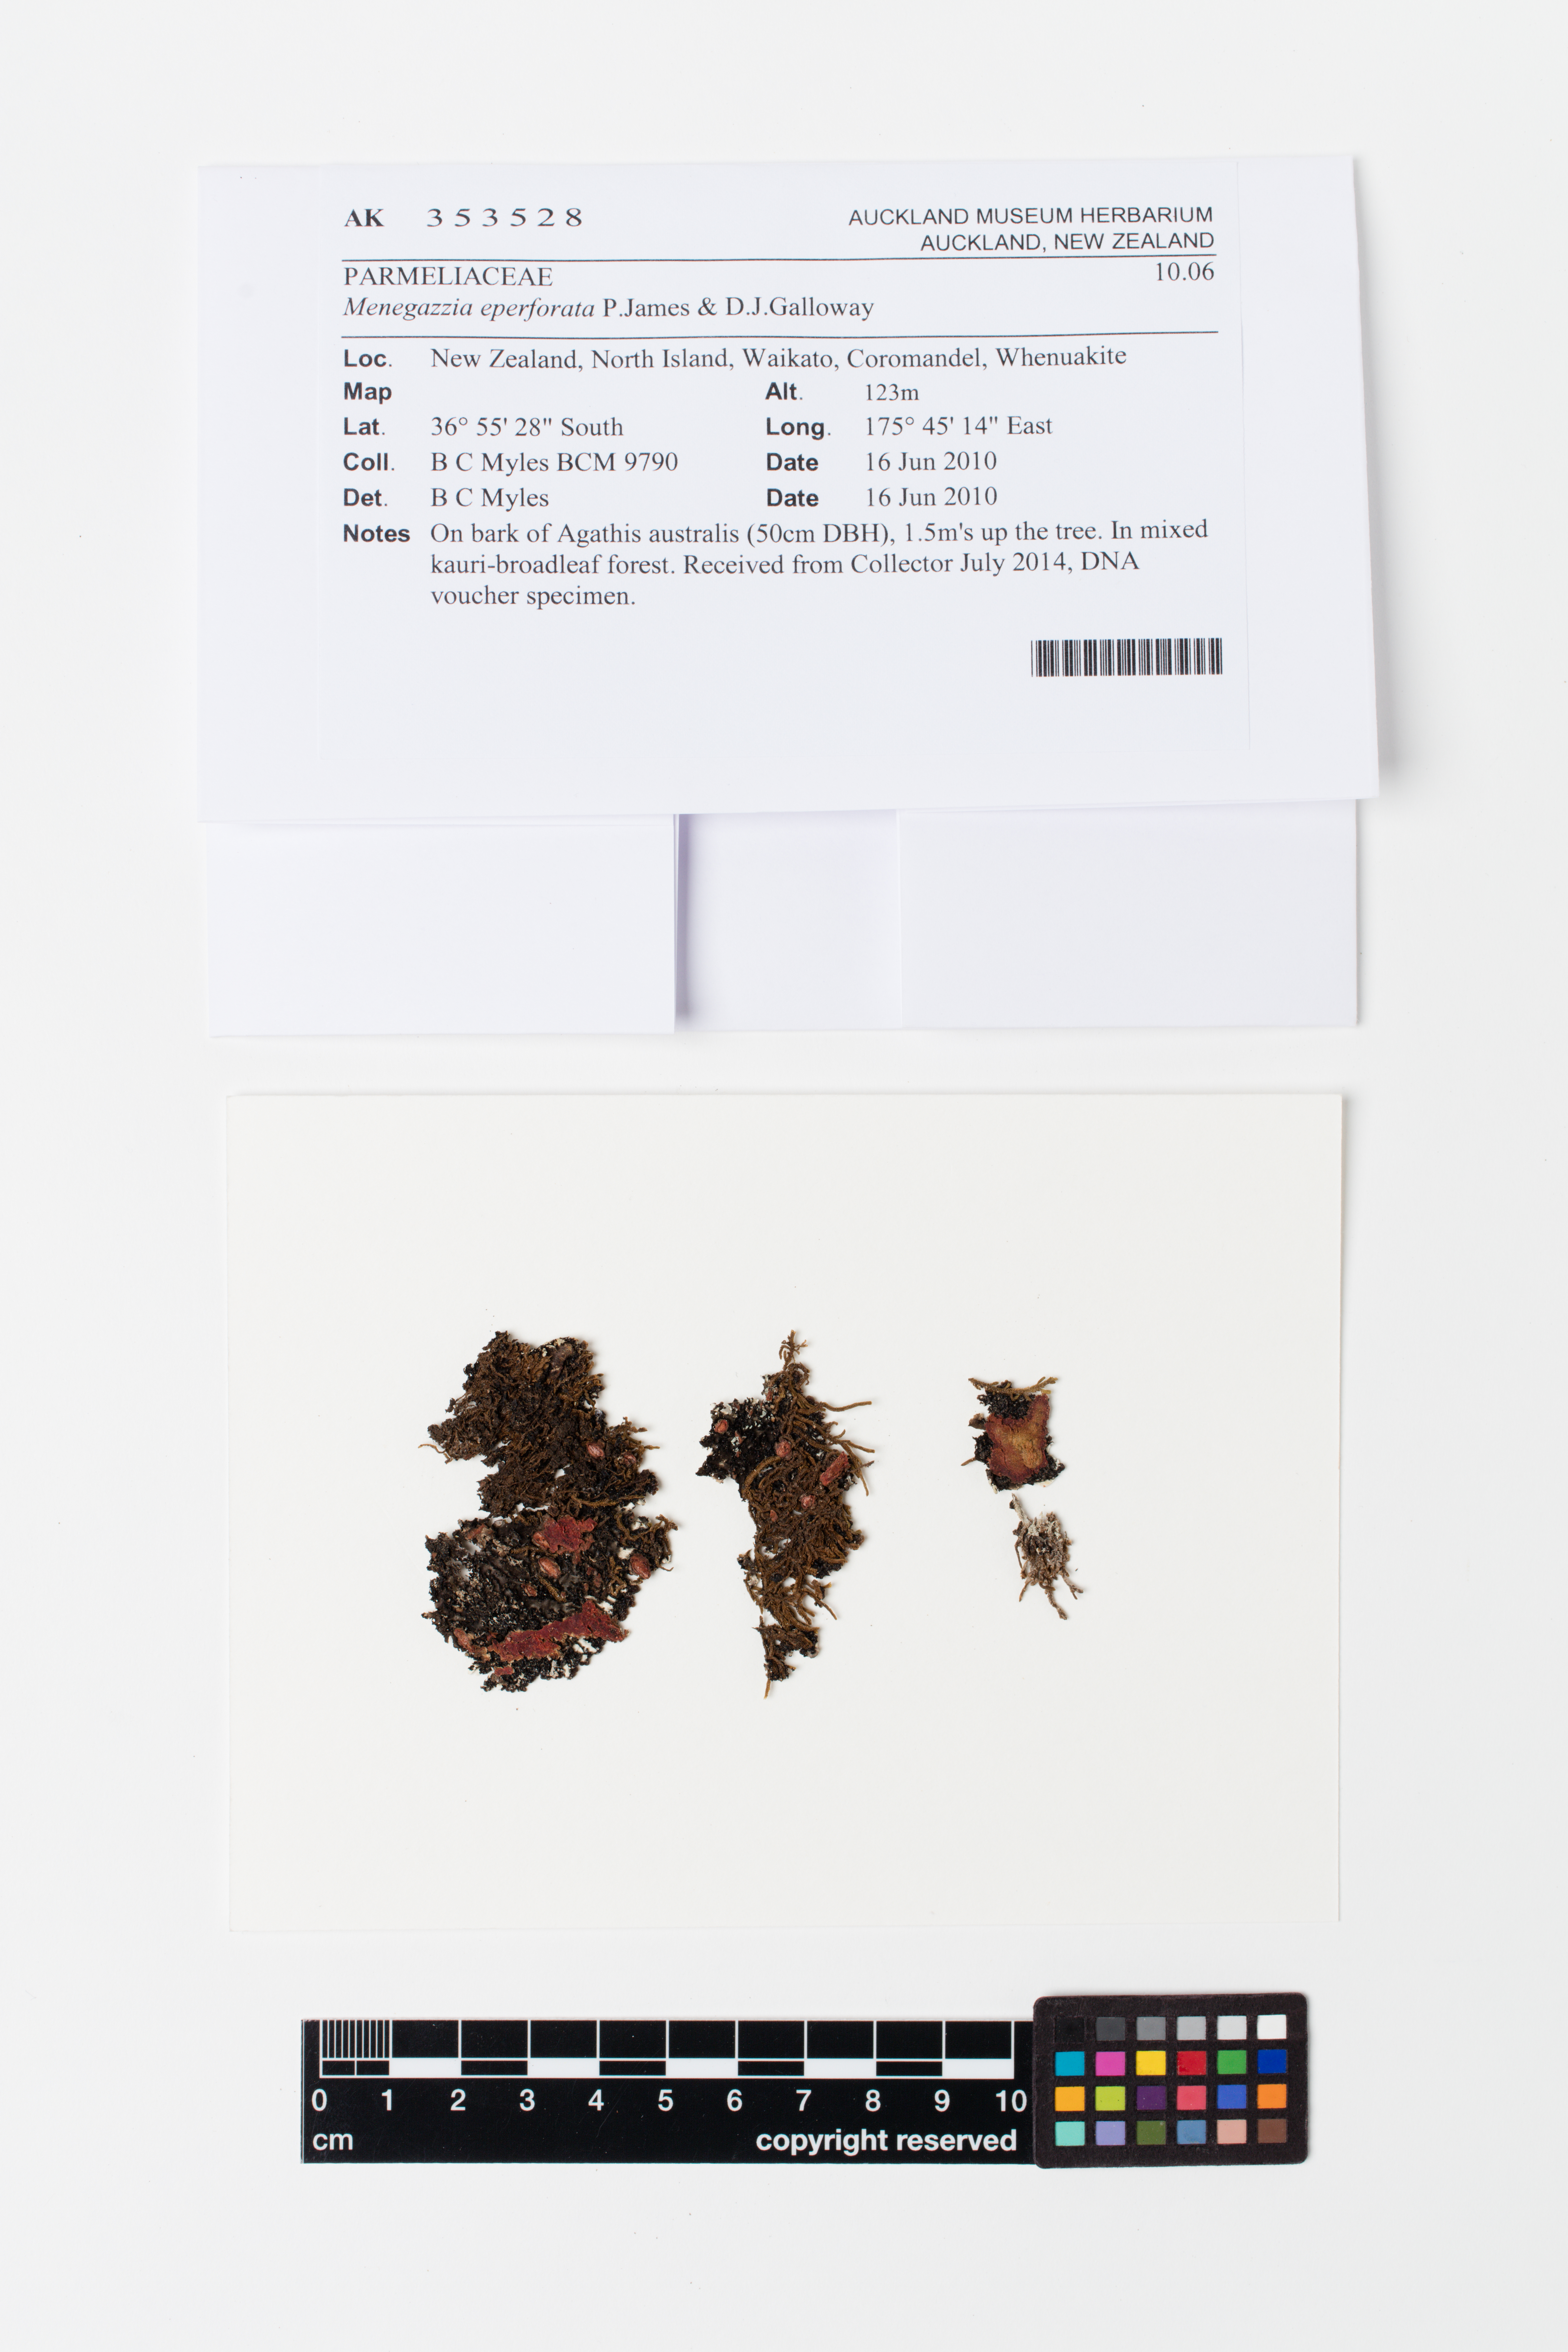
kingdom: Fungi
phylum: Ascomycota
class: Lecanoromycetes
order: Lecanorales
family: Parmeliaceae
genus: Menegazzia
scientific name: Menegazzia eperforata
